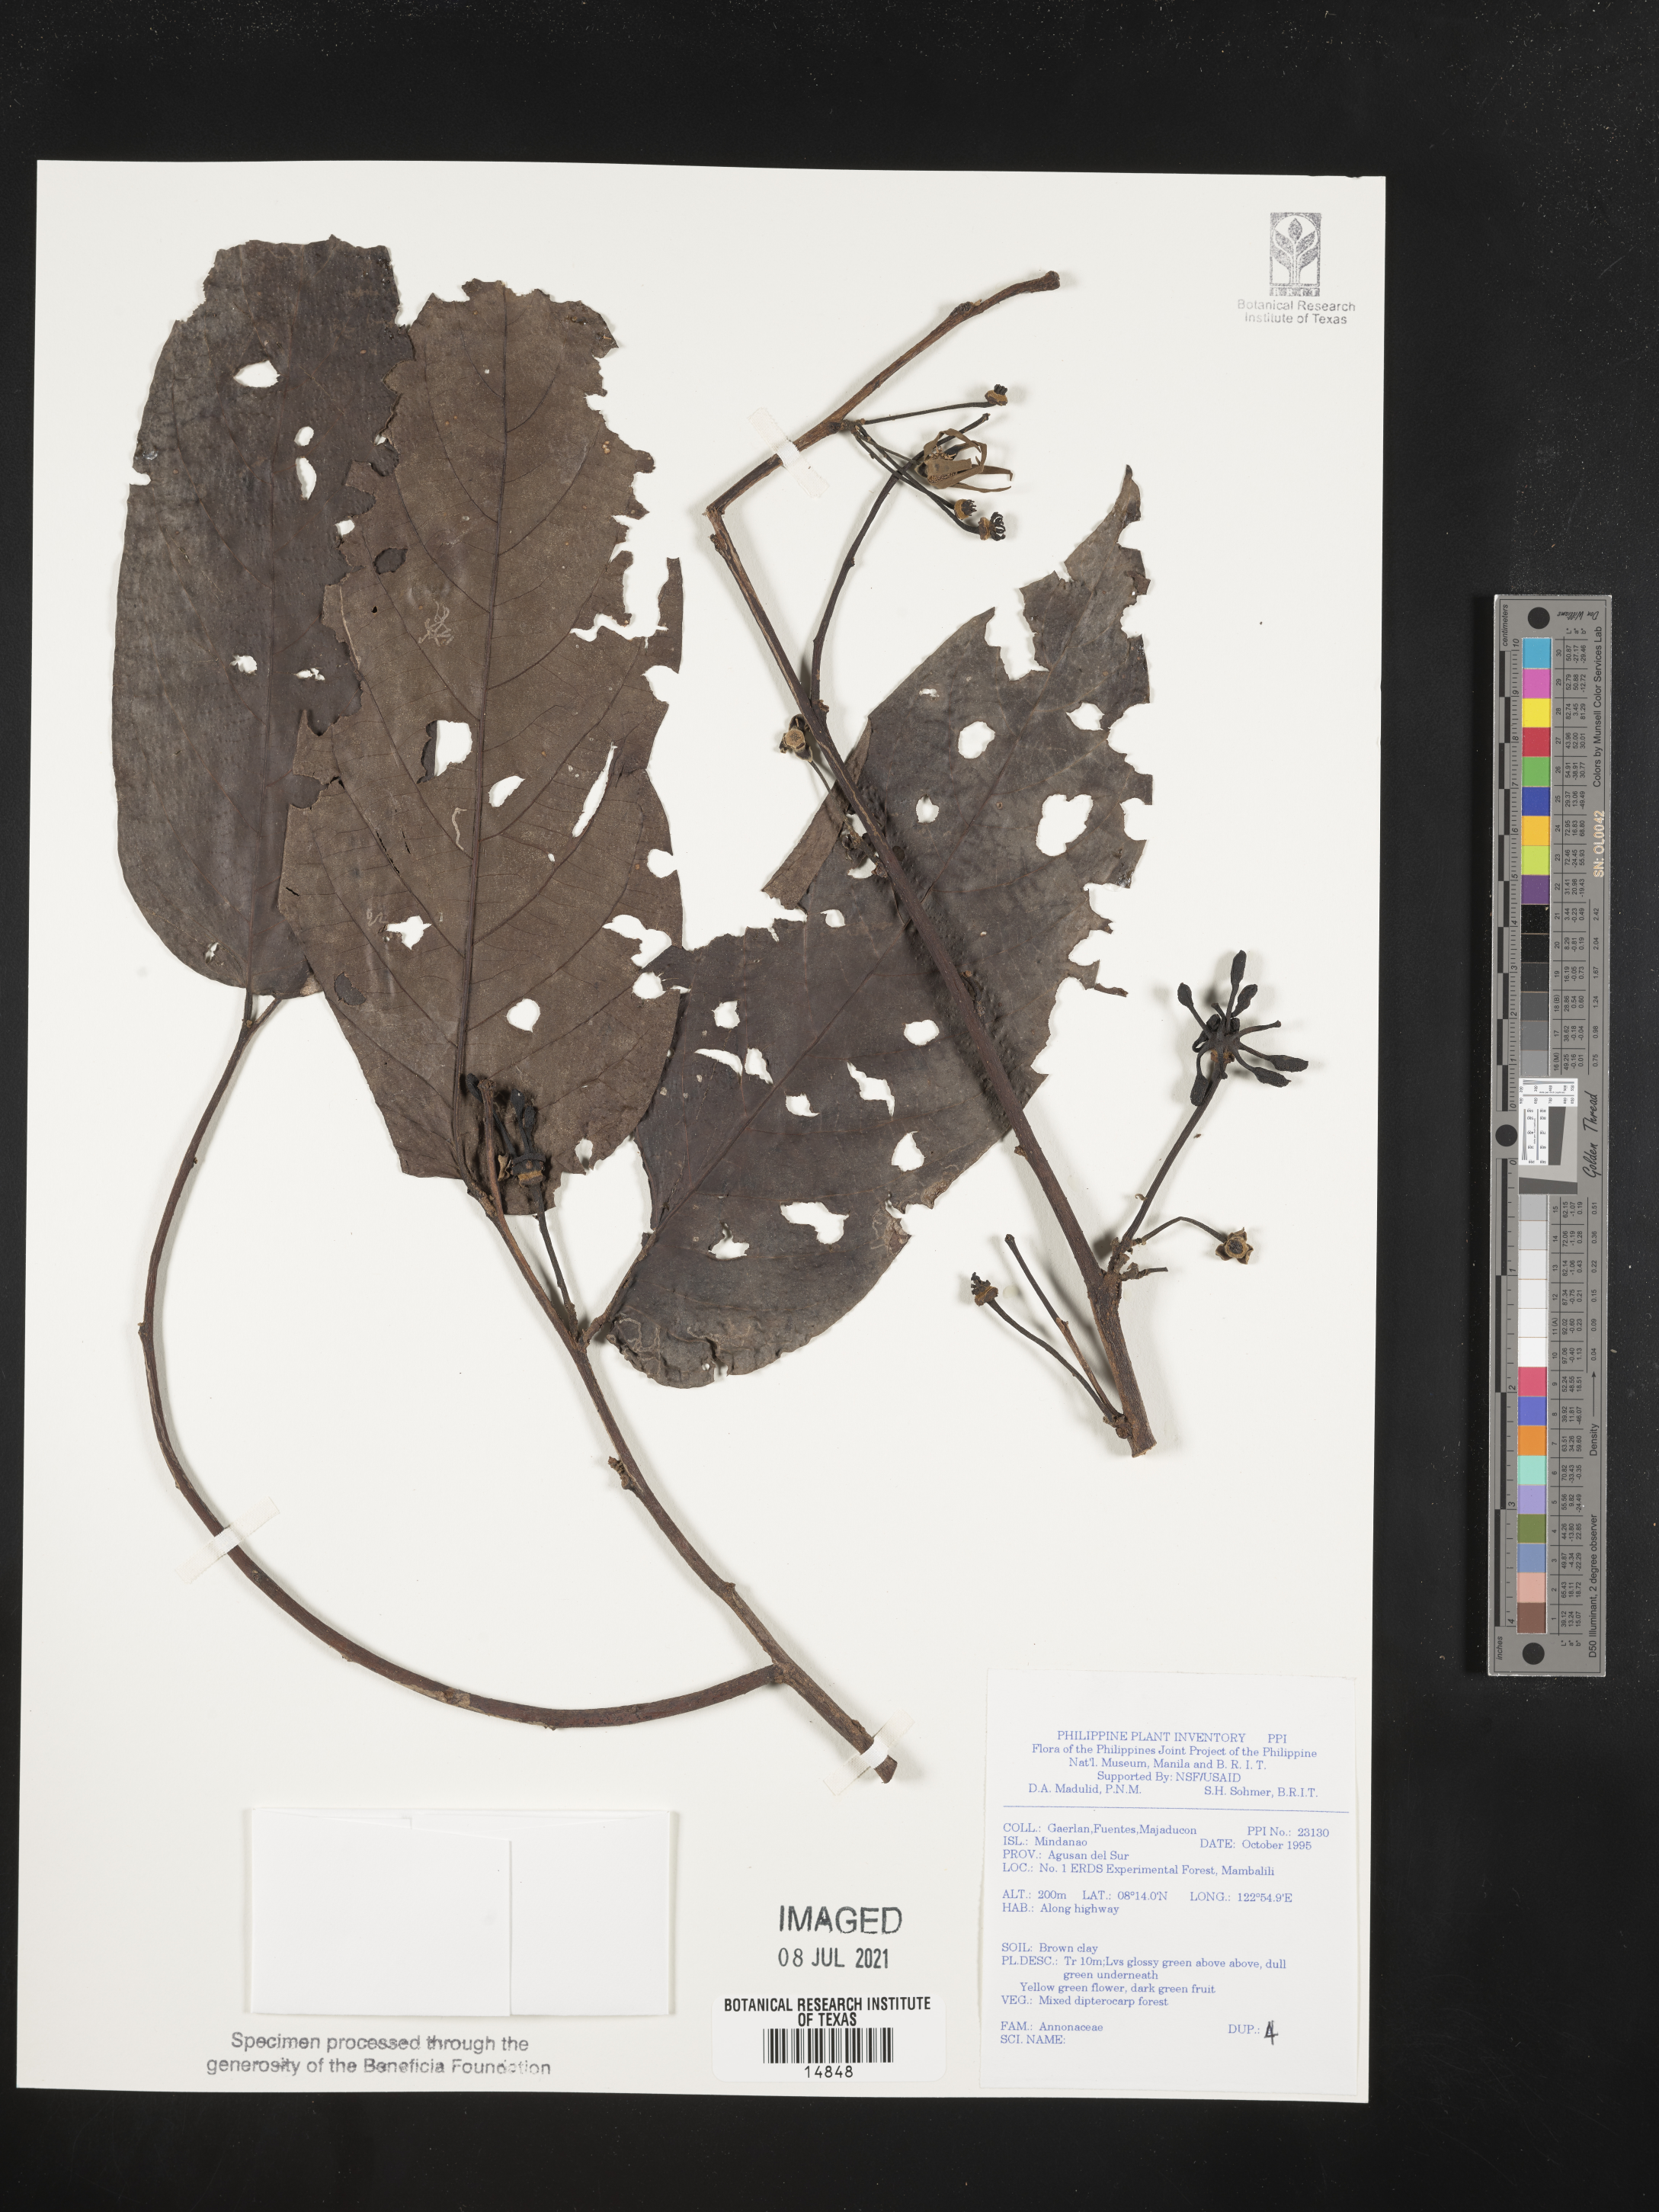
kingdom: Plantae
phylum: Tracheophyta
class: Magnoliopsida
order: Magnoliales
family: Annonaceae
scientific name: Annonaceae
